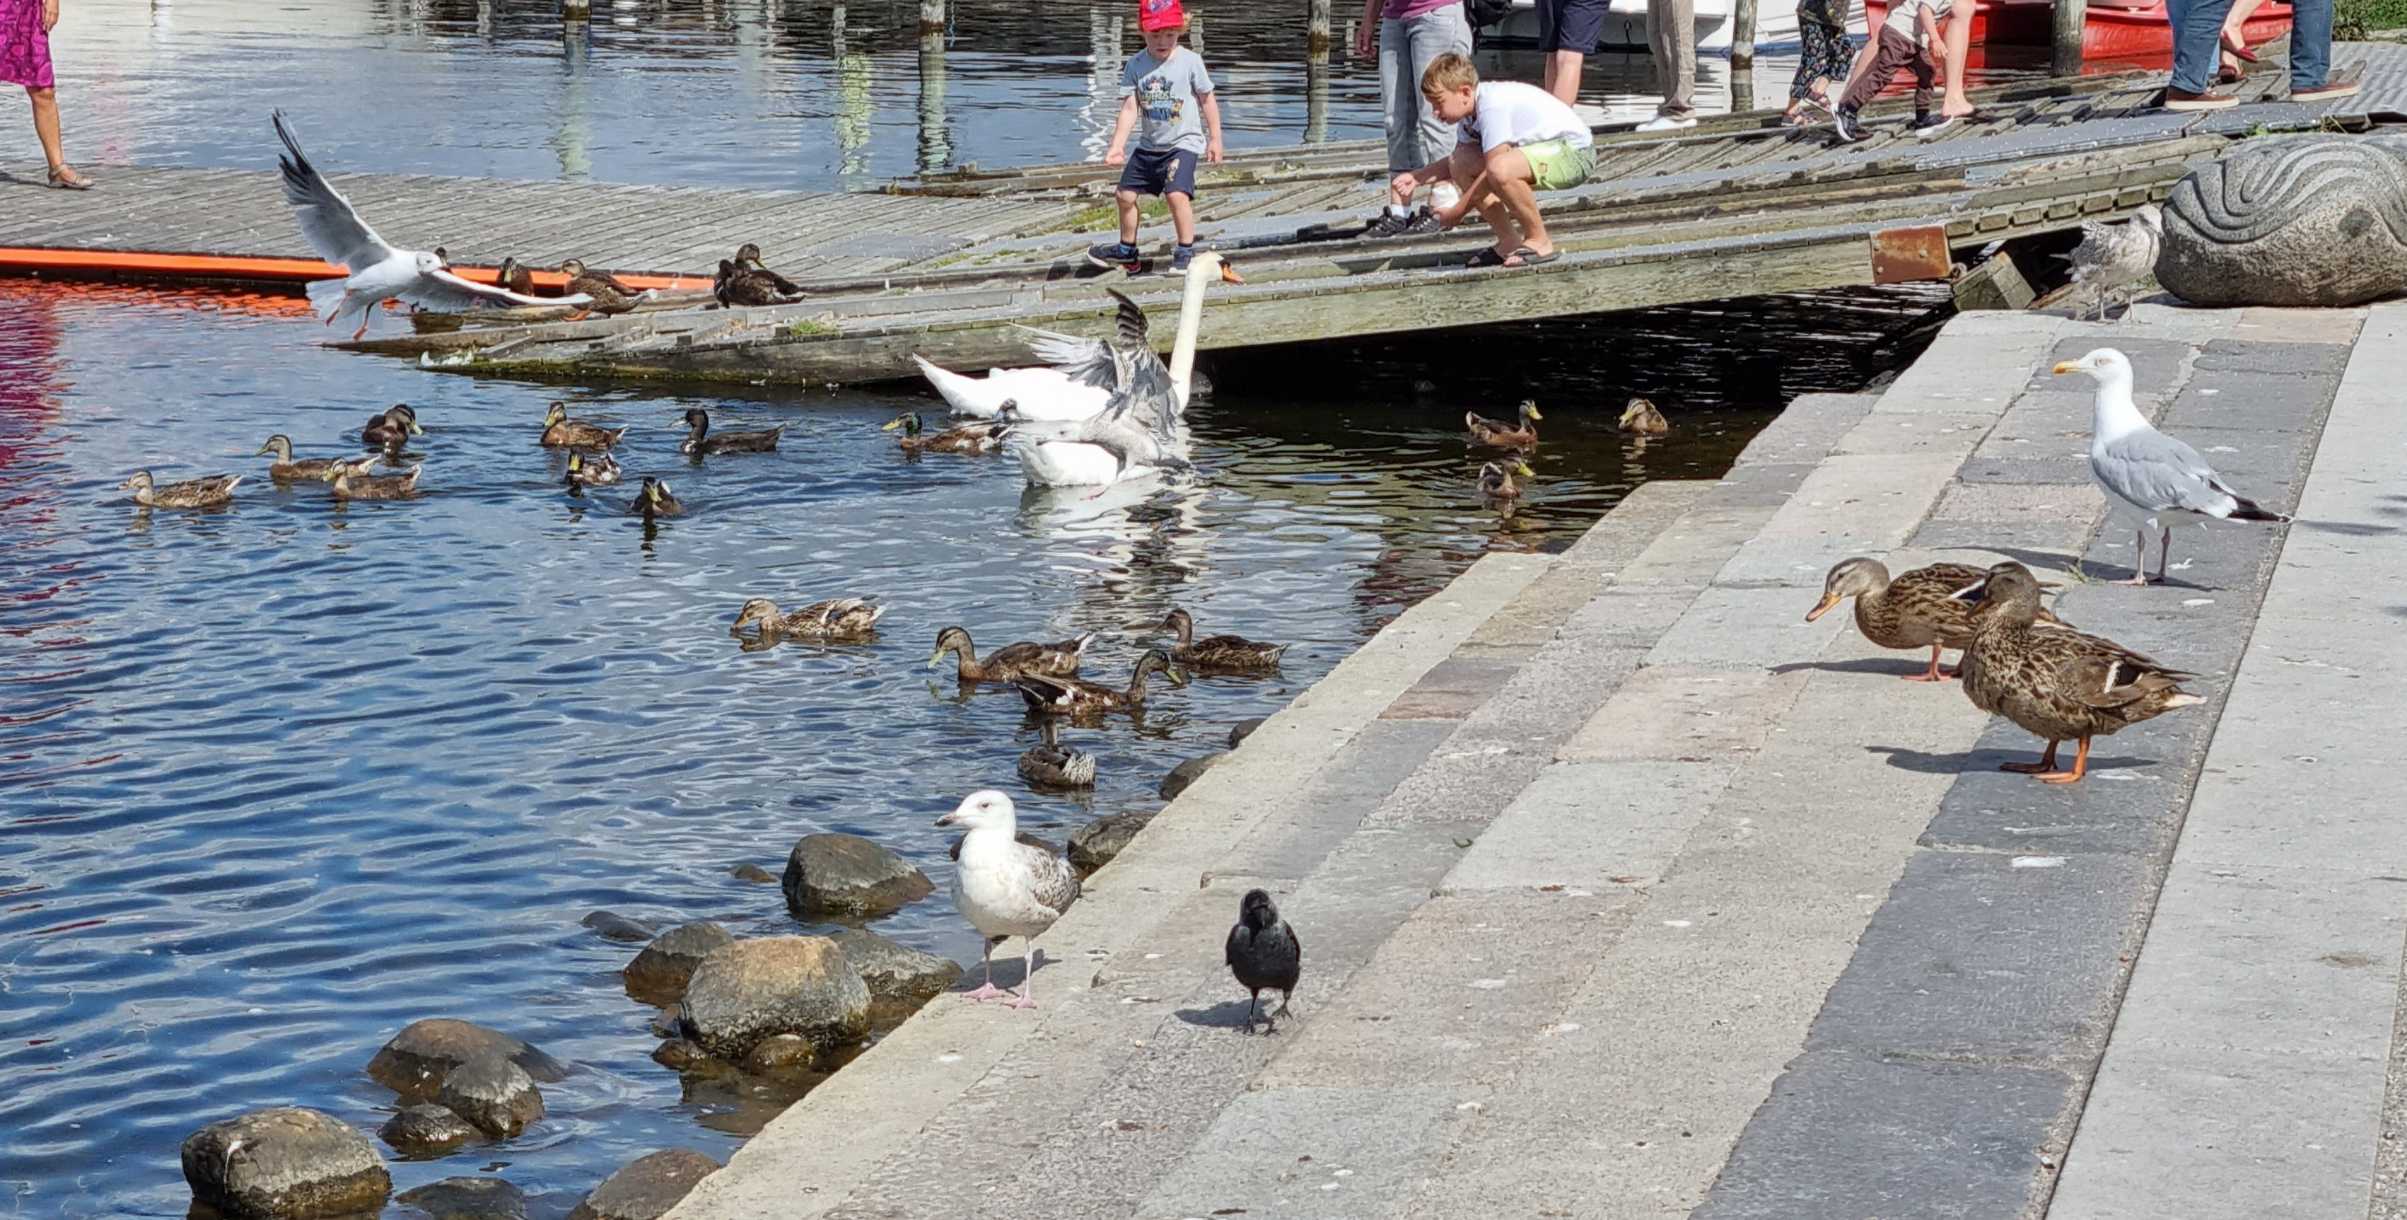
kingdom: Animalia
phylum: Chordata
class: Aves
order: Charadriiformes
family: Laridae
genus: Larus
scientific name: Larus argentatus
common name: Sølvmåge
